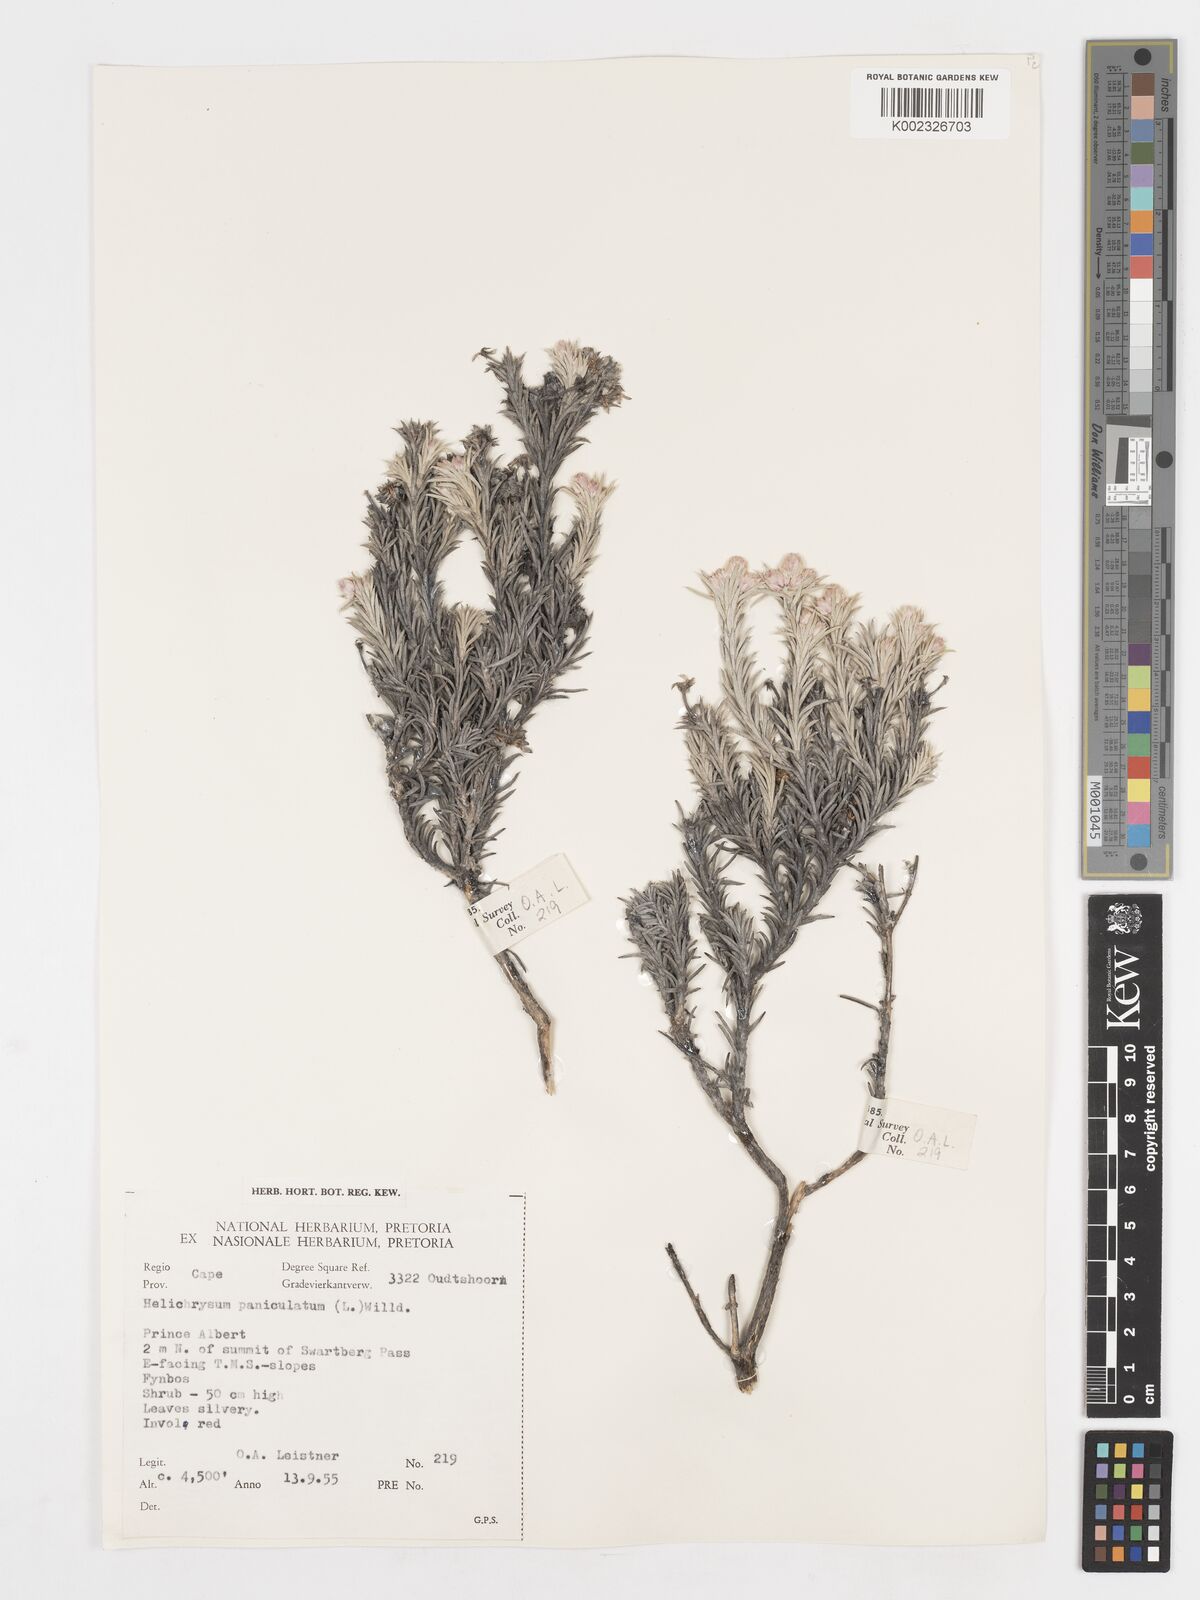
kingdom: Plantae
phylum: Tracheophyta
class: Magnoliopsida
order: Asterales
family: Asteraceae
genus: Achyranthemum
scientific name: Achyranthemum paniculatum
